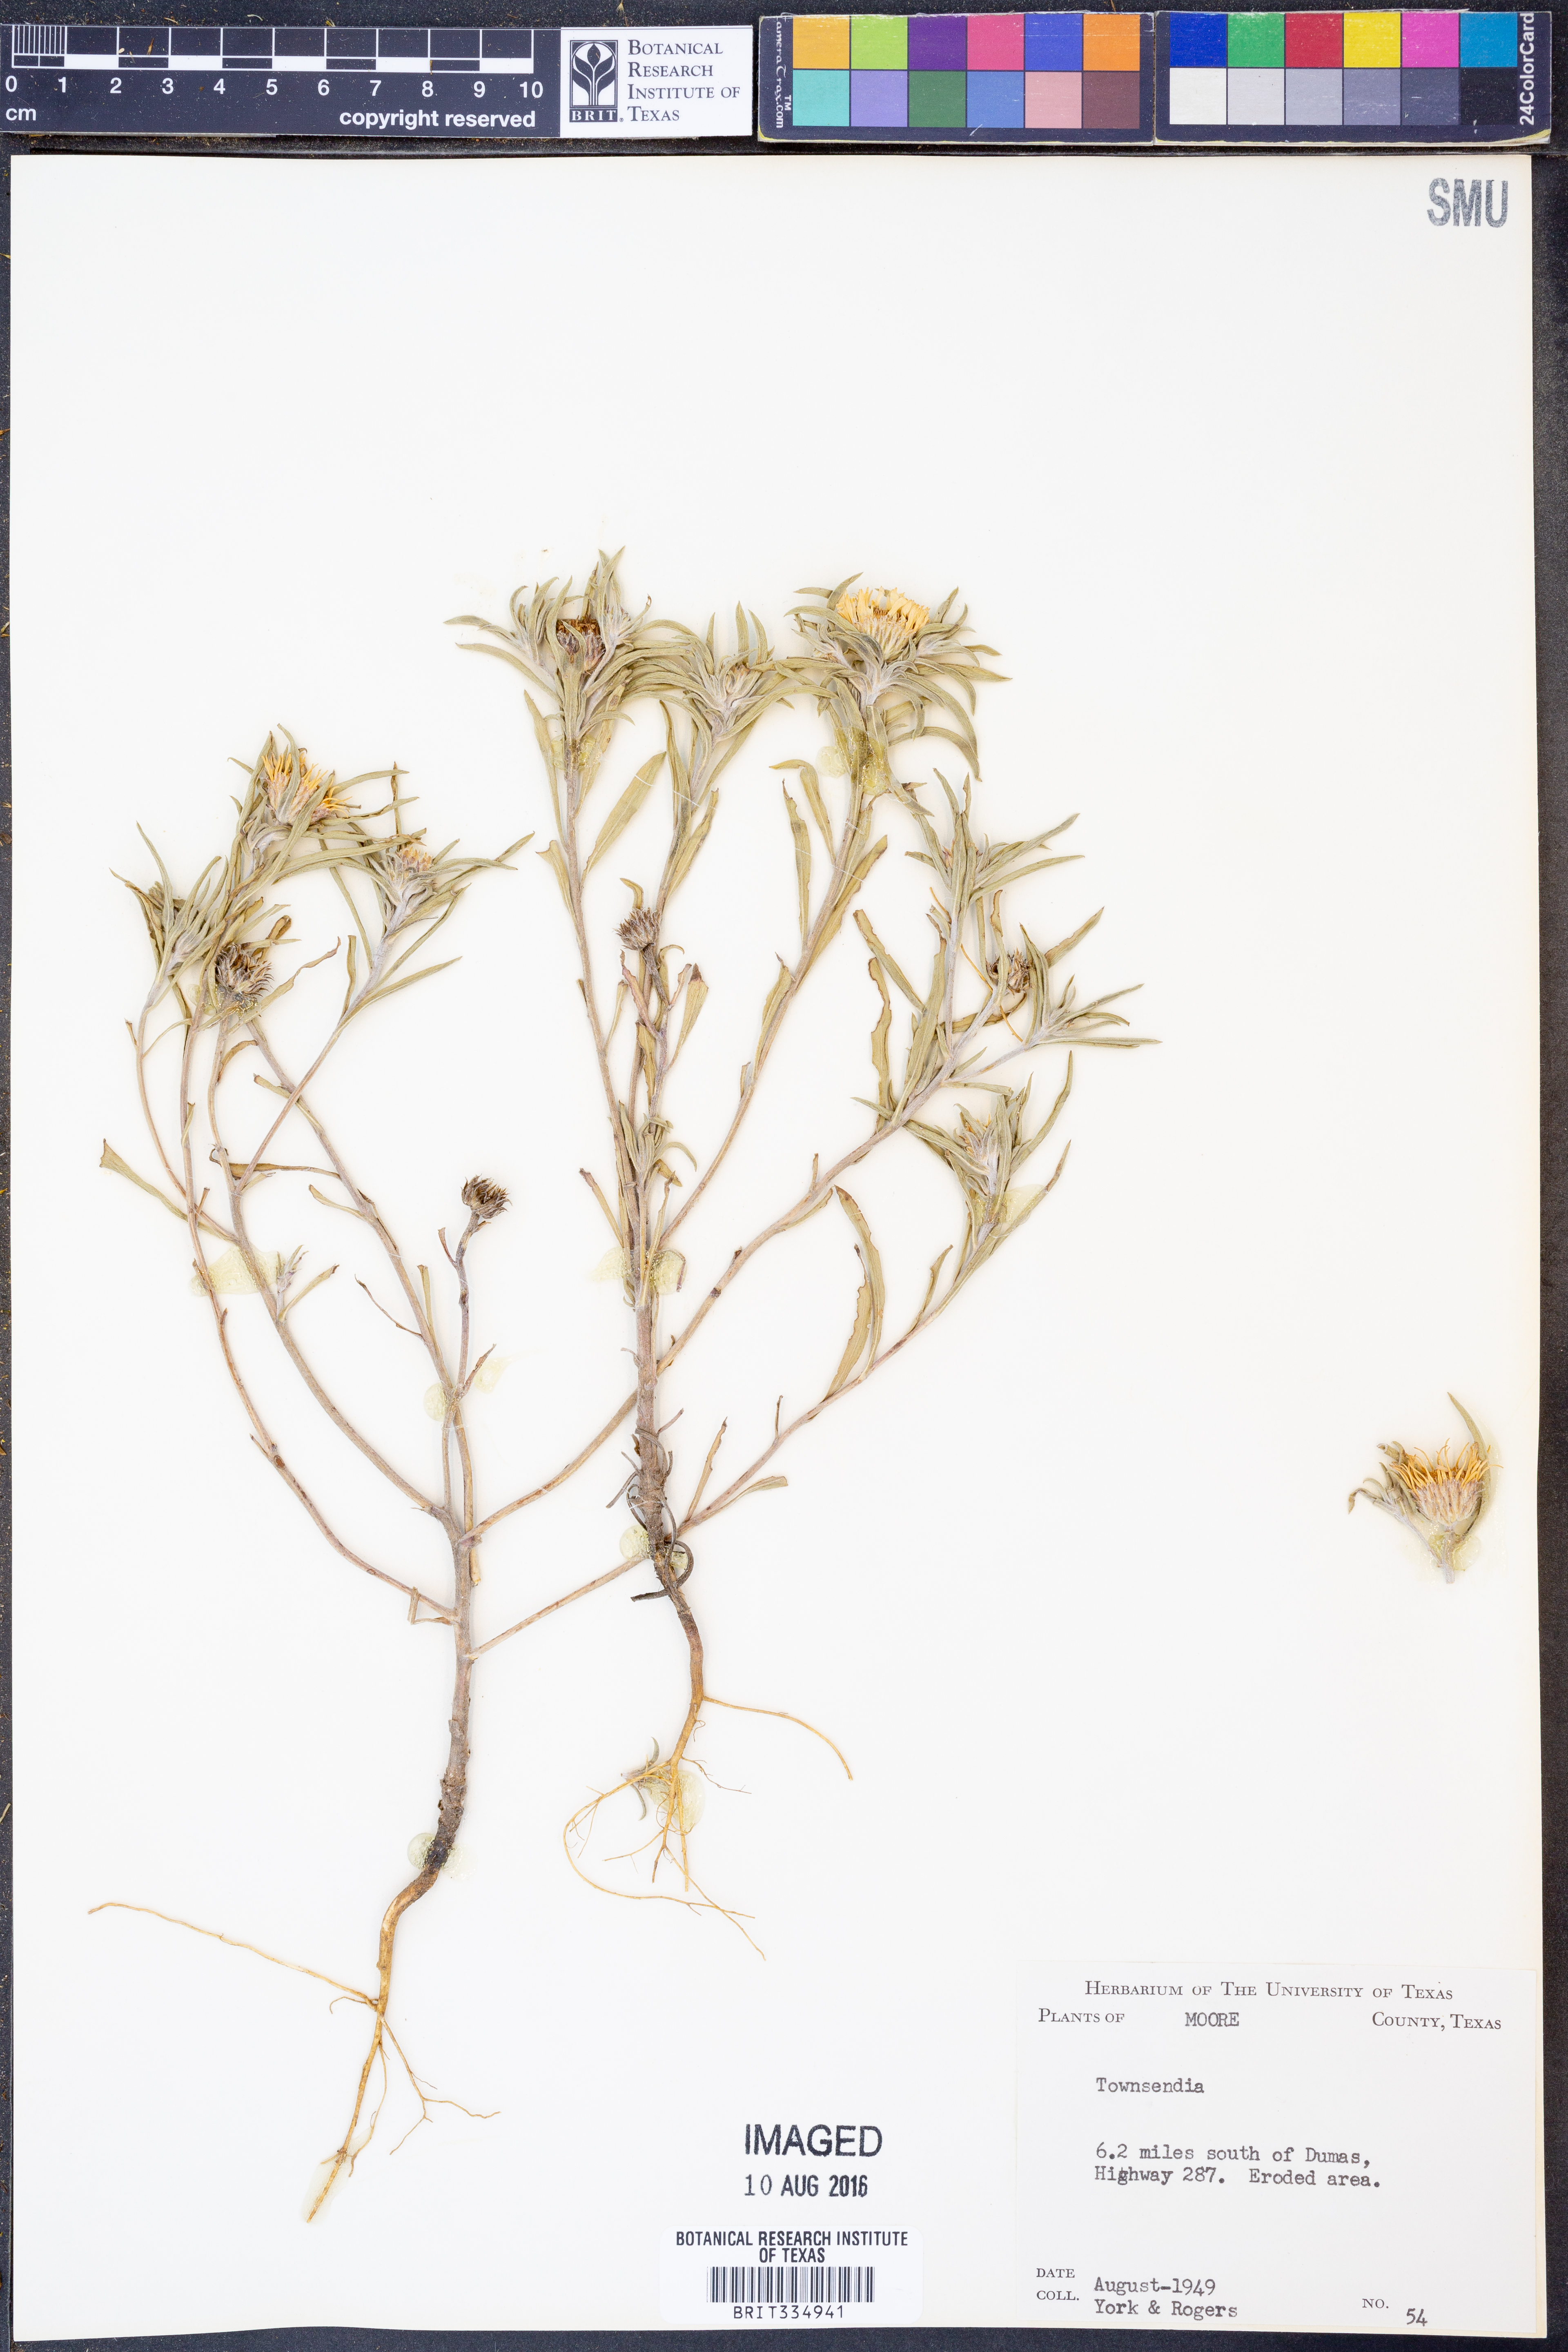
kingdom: Plantae
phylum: Tracheophyta
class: Magnoliopsida
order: Asterales
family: Asteraceae
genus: Townsendia
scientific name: Townsendia
